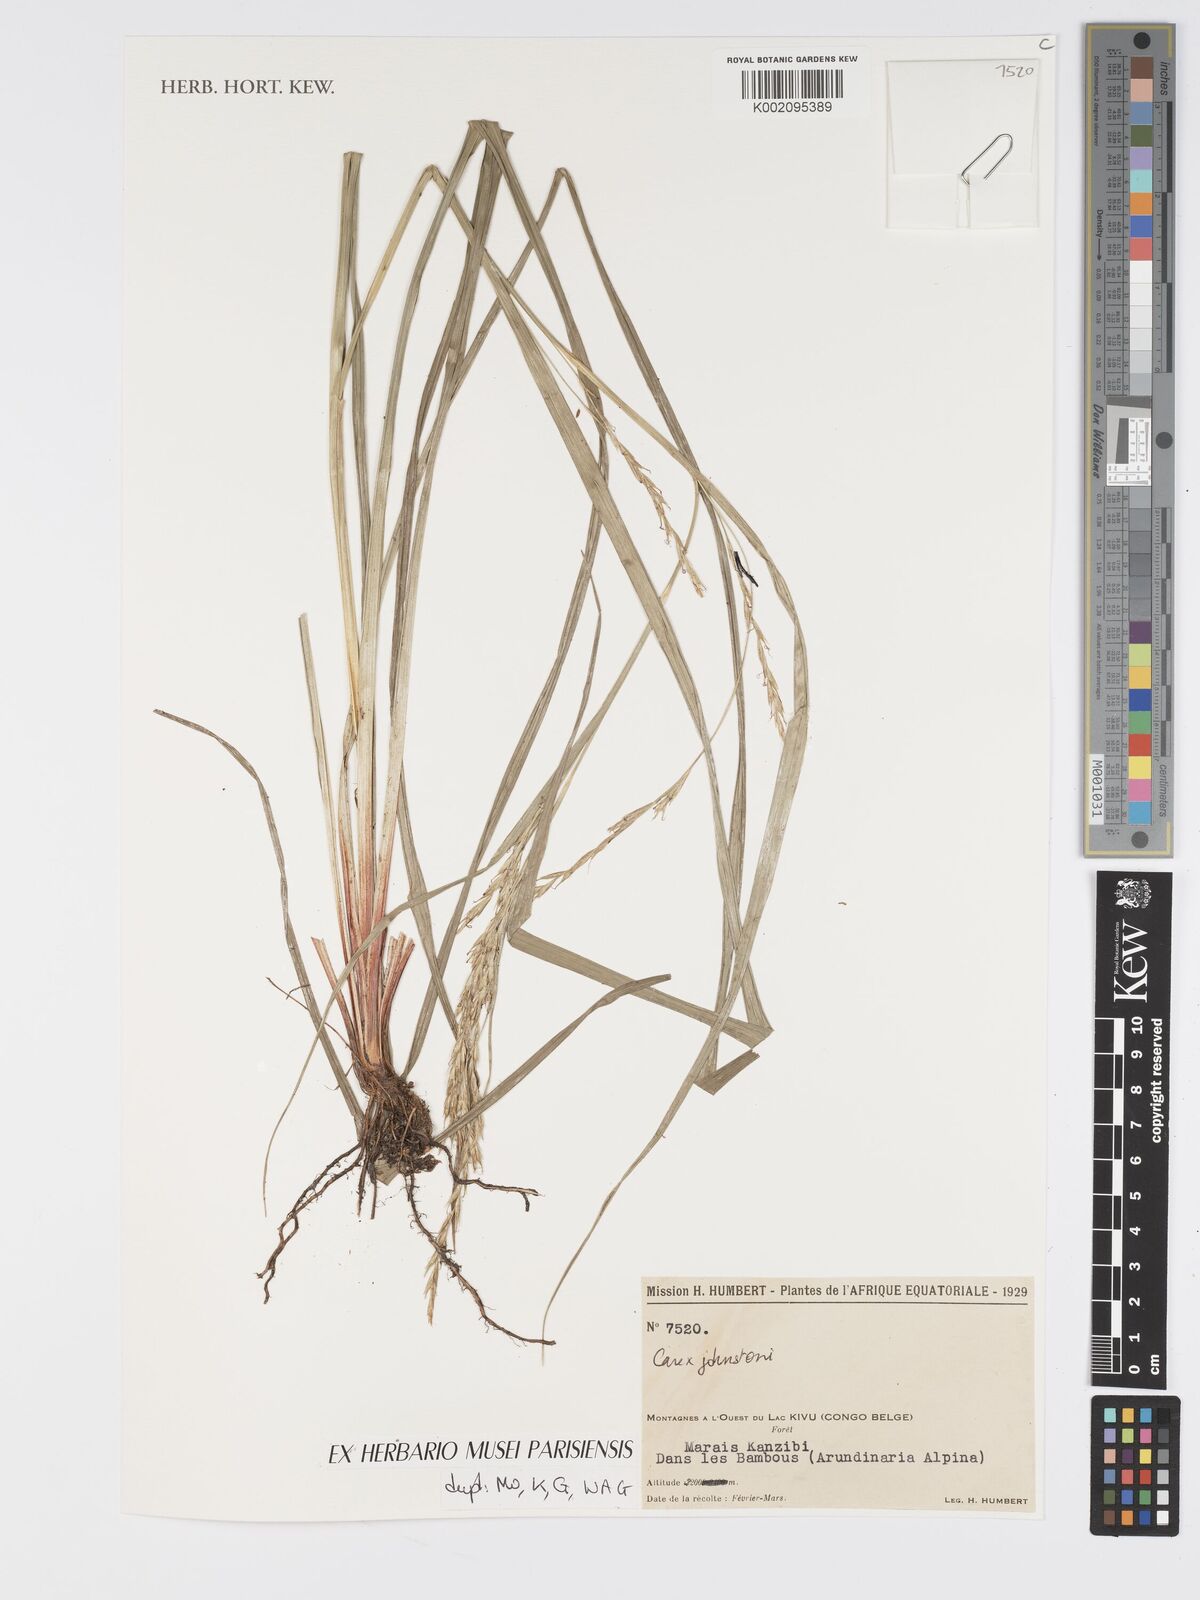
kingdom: Plantae
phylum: Tracheophyta
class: Liliopsida
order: Poales
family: Cyperaceae
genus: Carex
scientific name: Carex johnstonii
